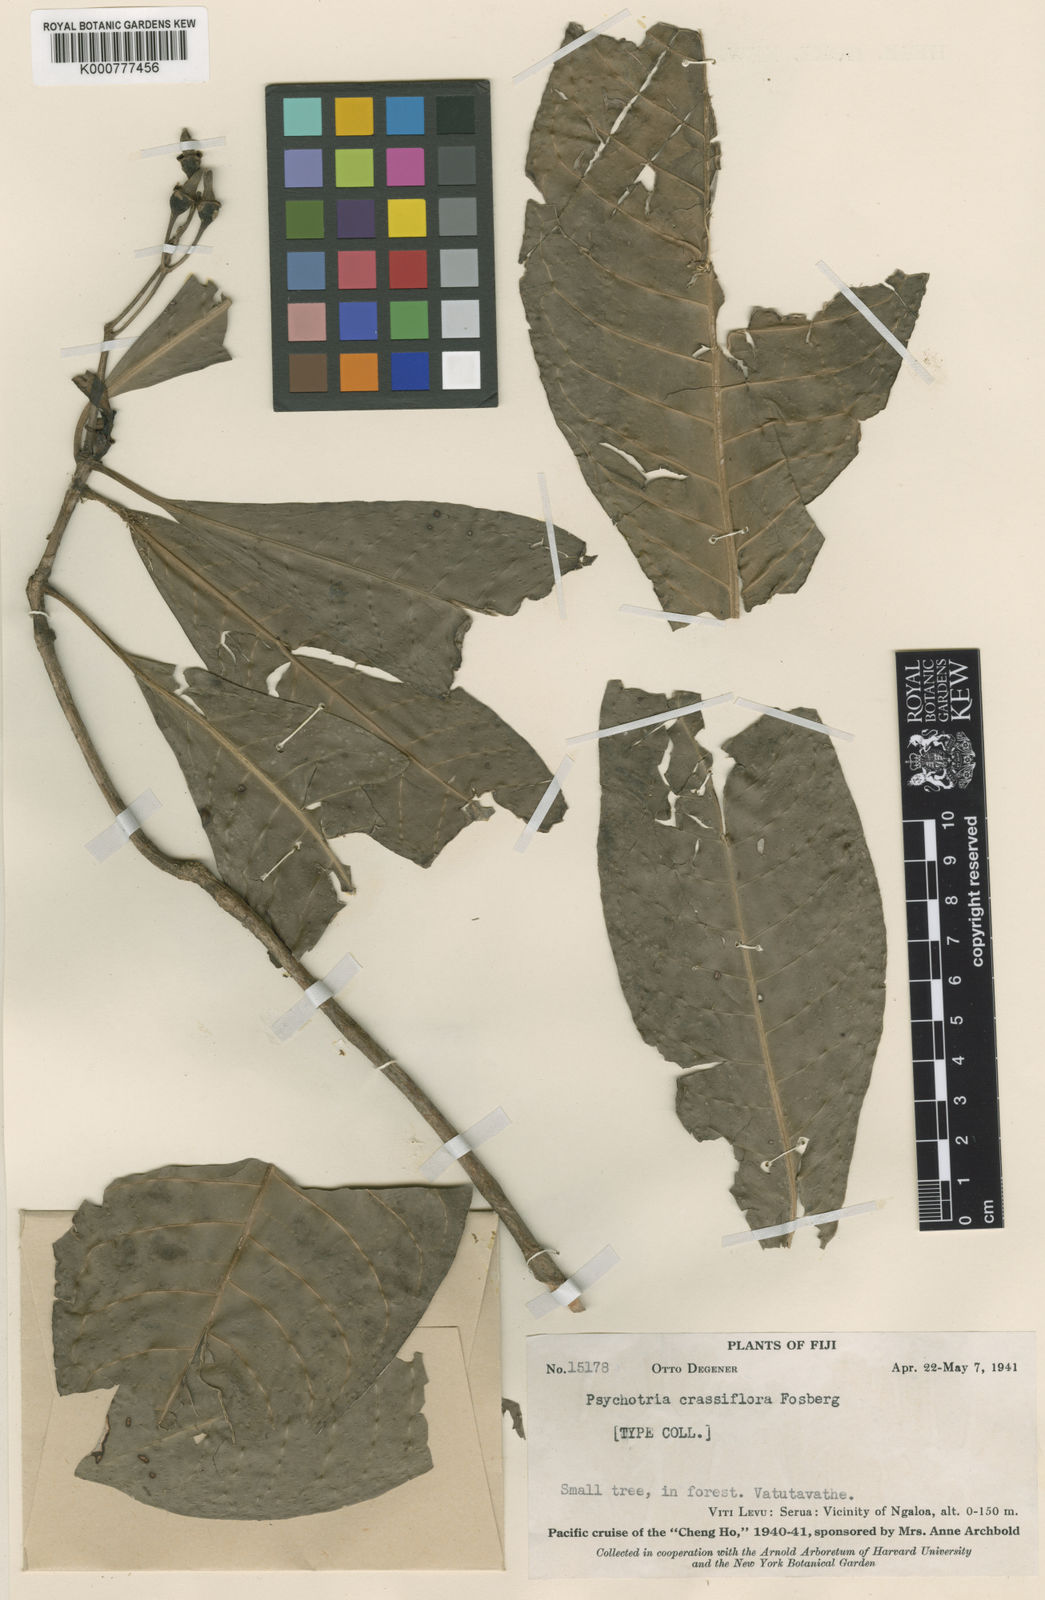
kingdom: Plantae
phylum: Tracheophyta
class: Magnoliopsida
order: Gentianales
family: Rubiaceae
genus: Psychotria
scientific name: Psychotria crassiflora
